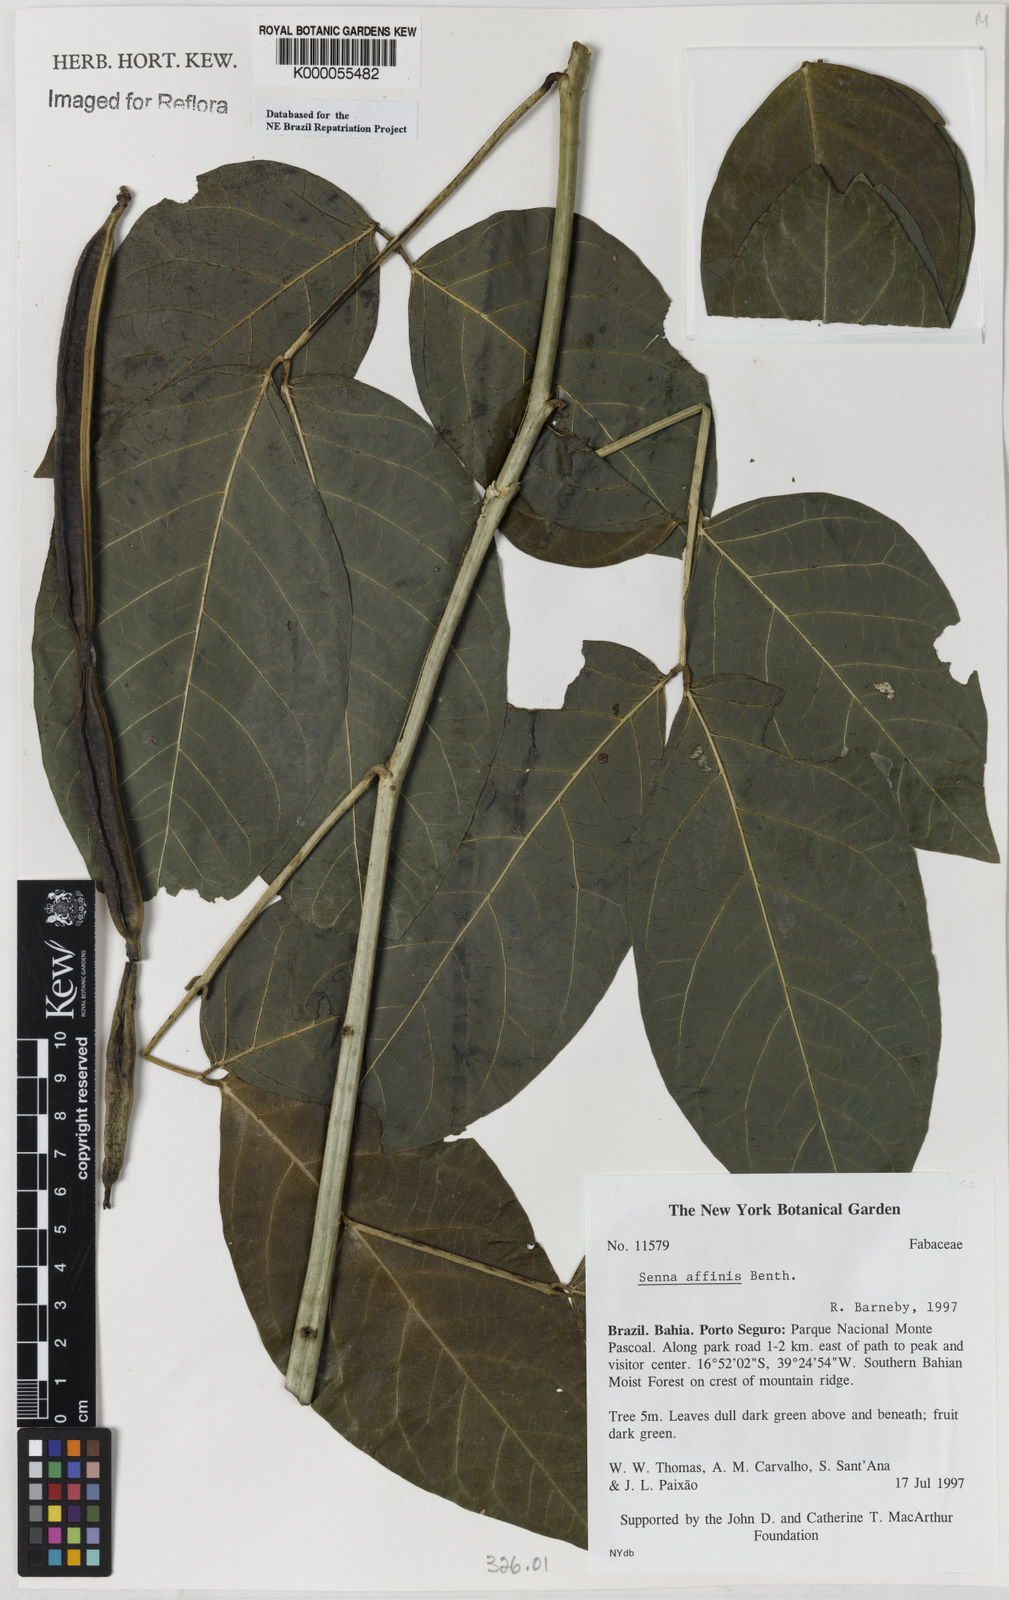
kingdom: Plantae
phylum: Tracheophyta
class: Magnoliopsida
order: Fabales
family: Fabaceae
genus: Senna
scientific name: Senna affinis
